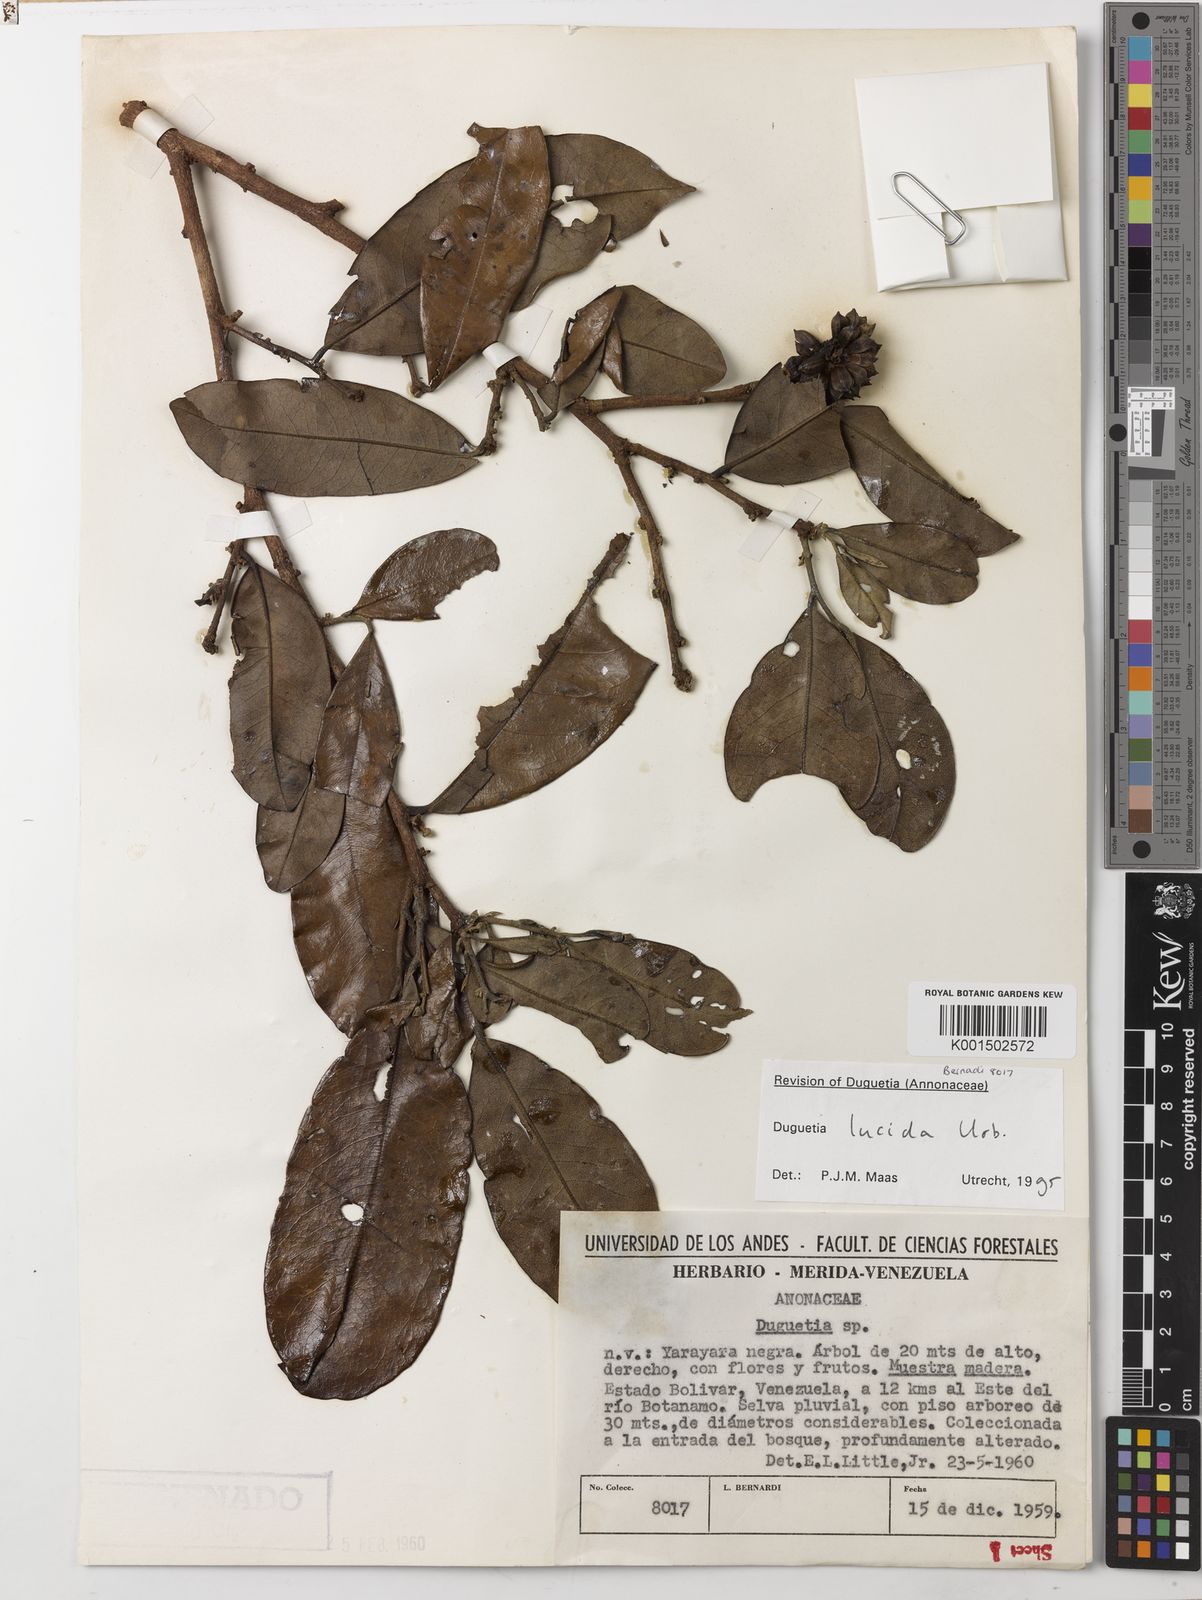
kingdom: Plantae
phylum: Tracheophyta
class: Magnoliopsida
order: Magnoliales
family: Annonaceae
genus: Duguetia
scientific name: Duguetia lucida
